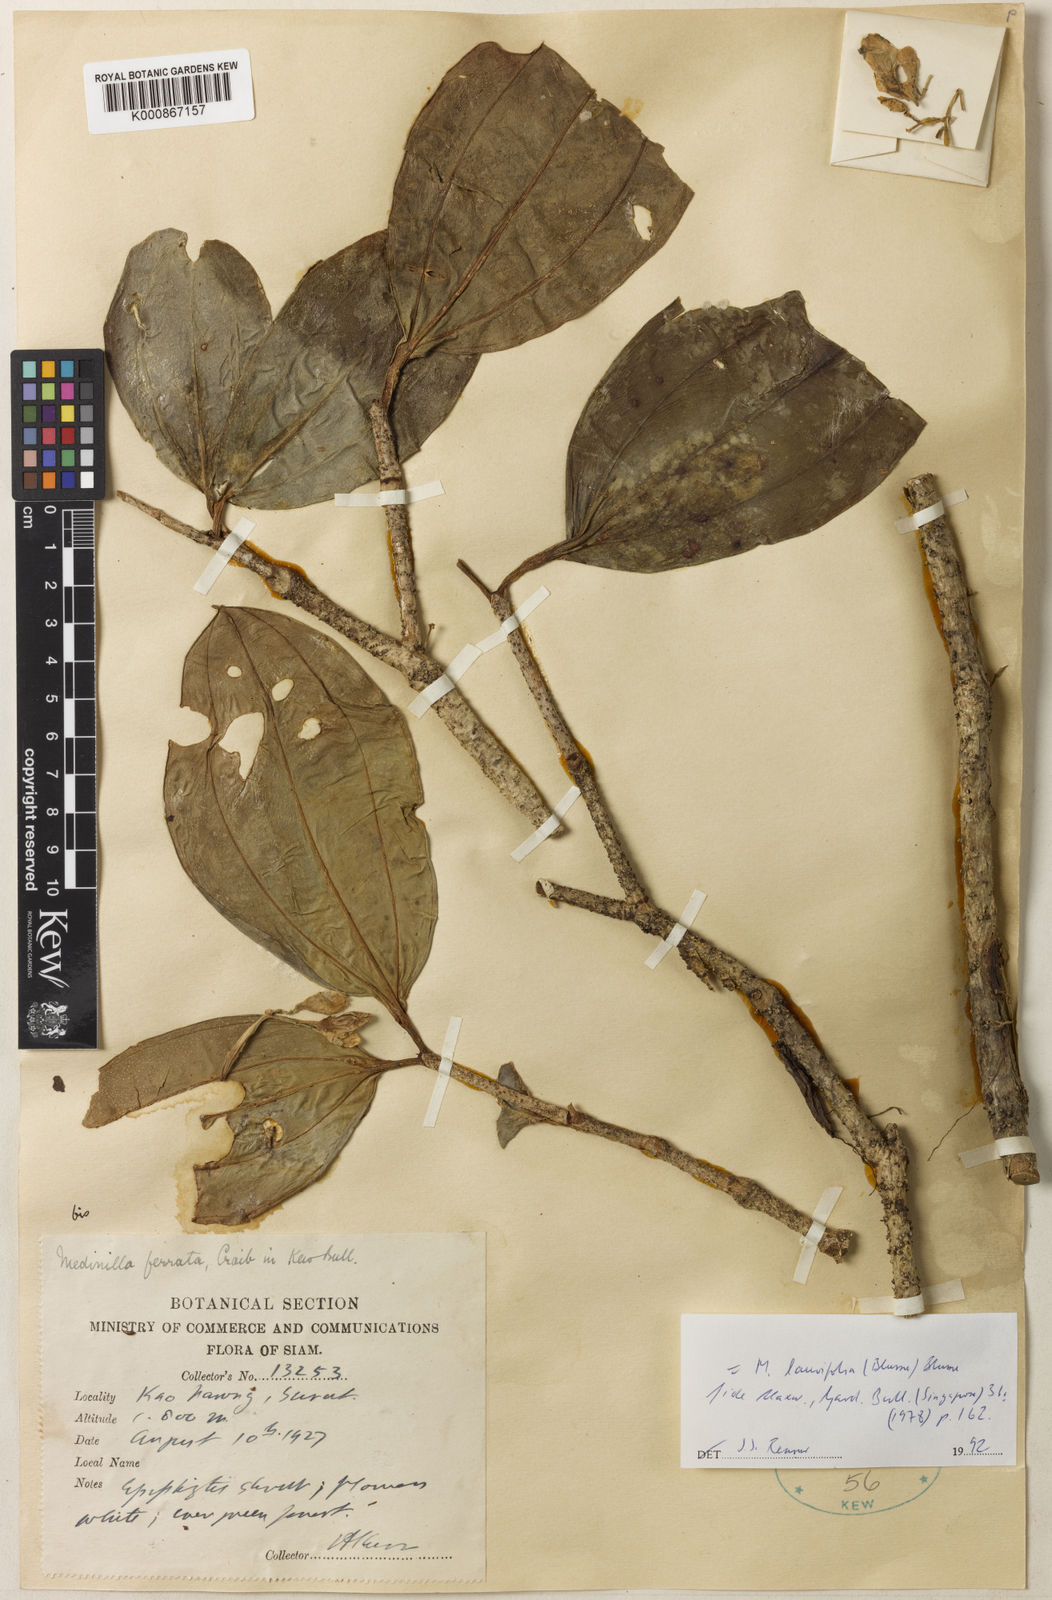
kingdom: Plantae
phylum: Tracheophyta
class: Magnoliopsida
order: Myrtales
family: Melastomataceae
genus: Medinilla
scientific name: Medinilla laurifolia
